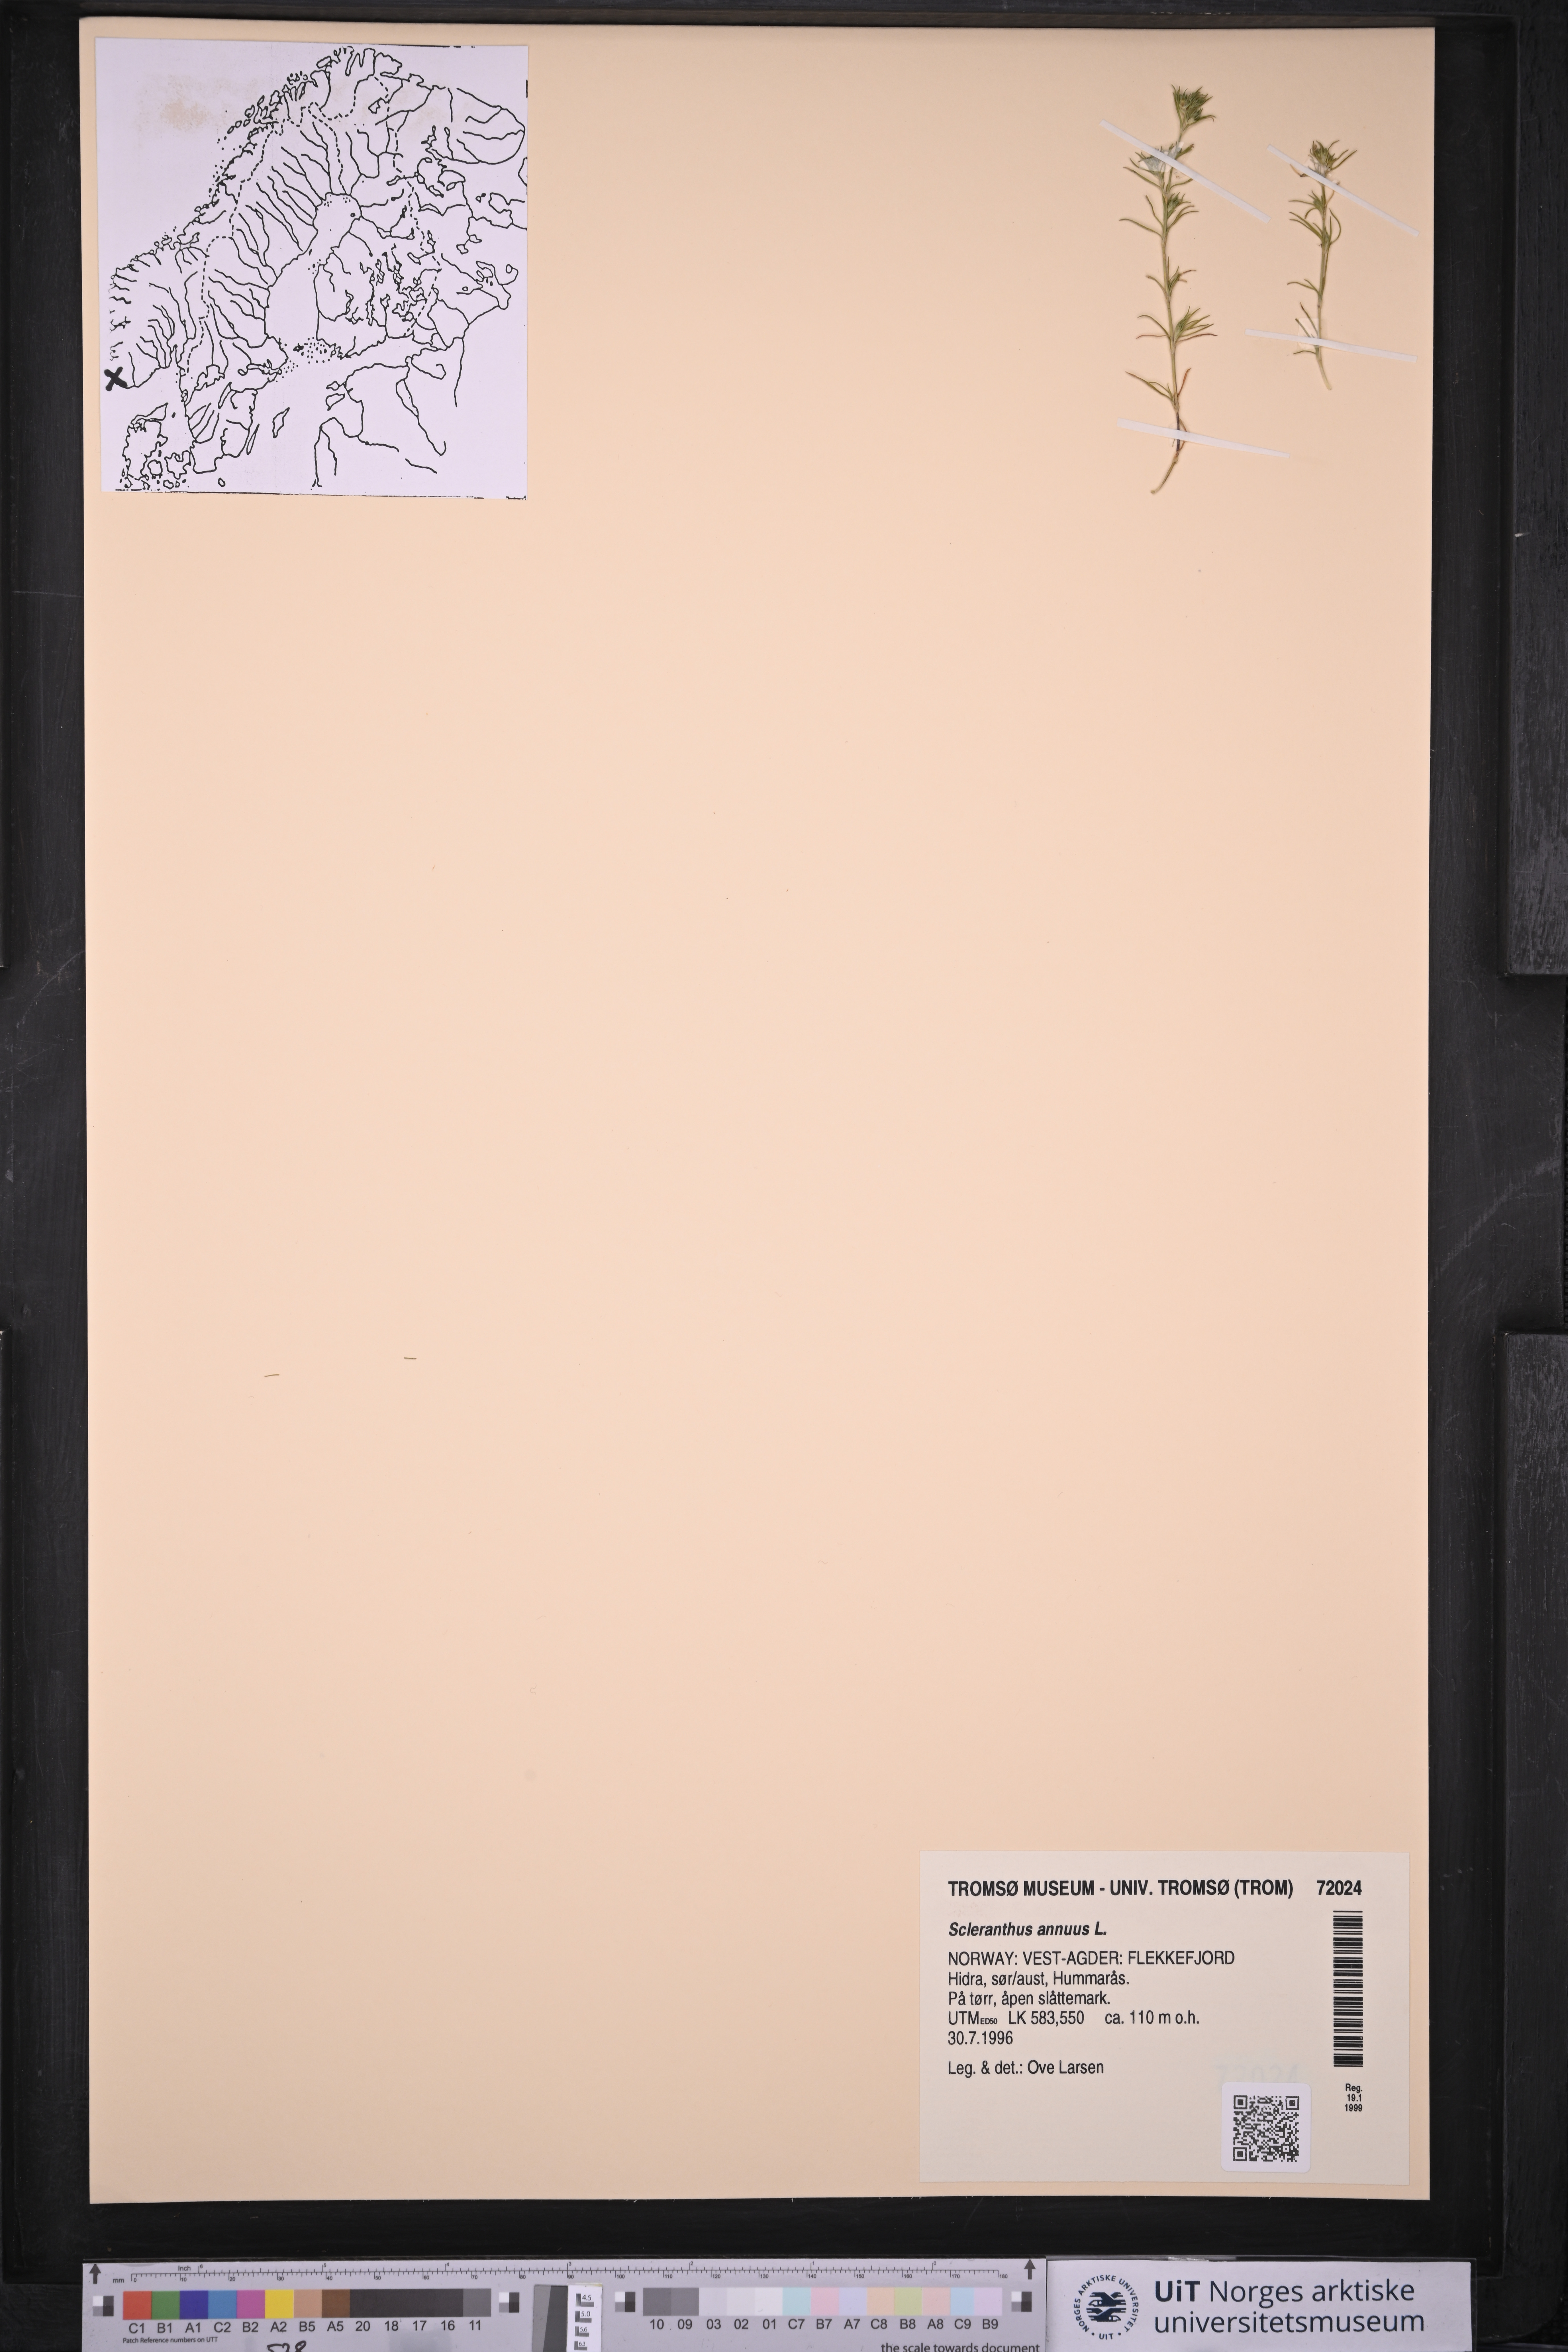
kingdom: Plantae
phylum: Tracheophyta
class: Magnoliopsida
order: Caryophyllales
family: Caryophyllaceae
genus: Scleranthus
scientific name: Scleranthus annuus
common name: Annual knawel
